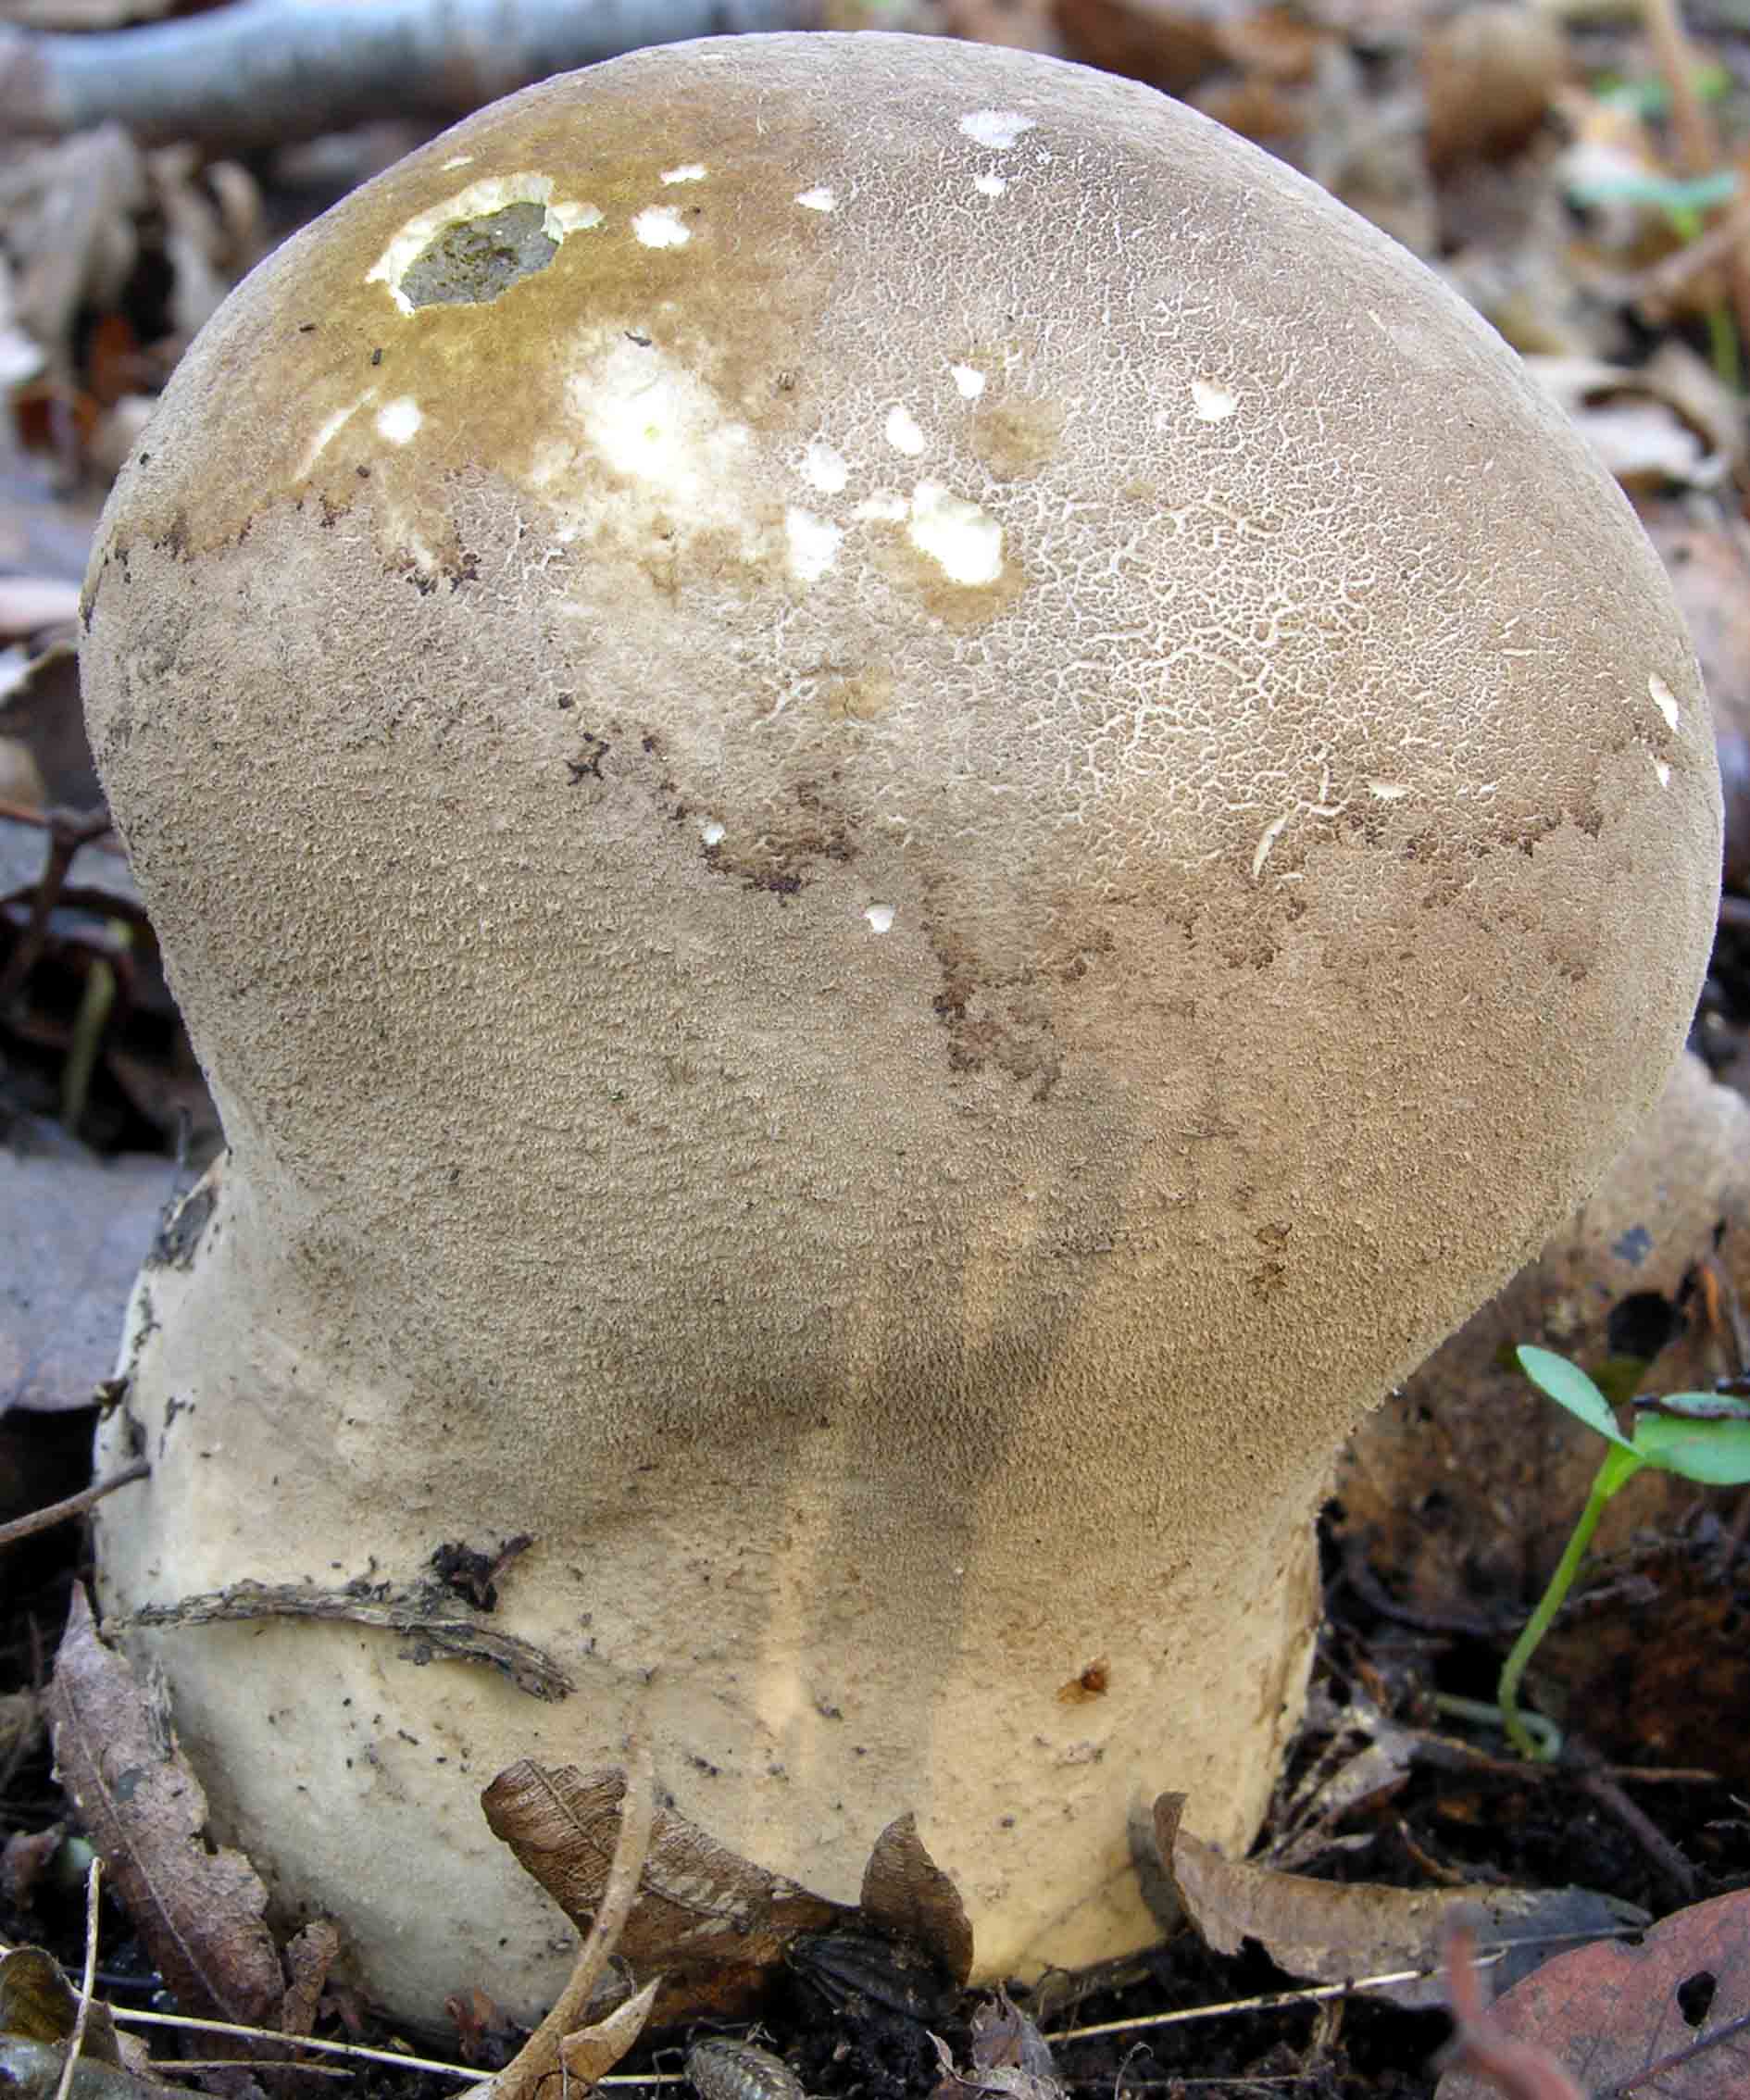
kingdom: Fungi
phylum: Basidiomycota
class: Agaricomycetes
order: Agaricales
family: Lycoperdaceae
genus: Lycoperdon
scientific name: Lycoperdon excipuliforme
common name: højstokket støvbold
